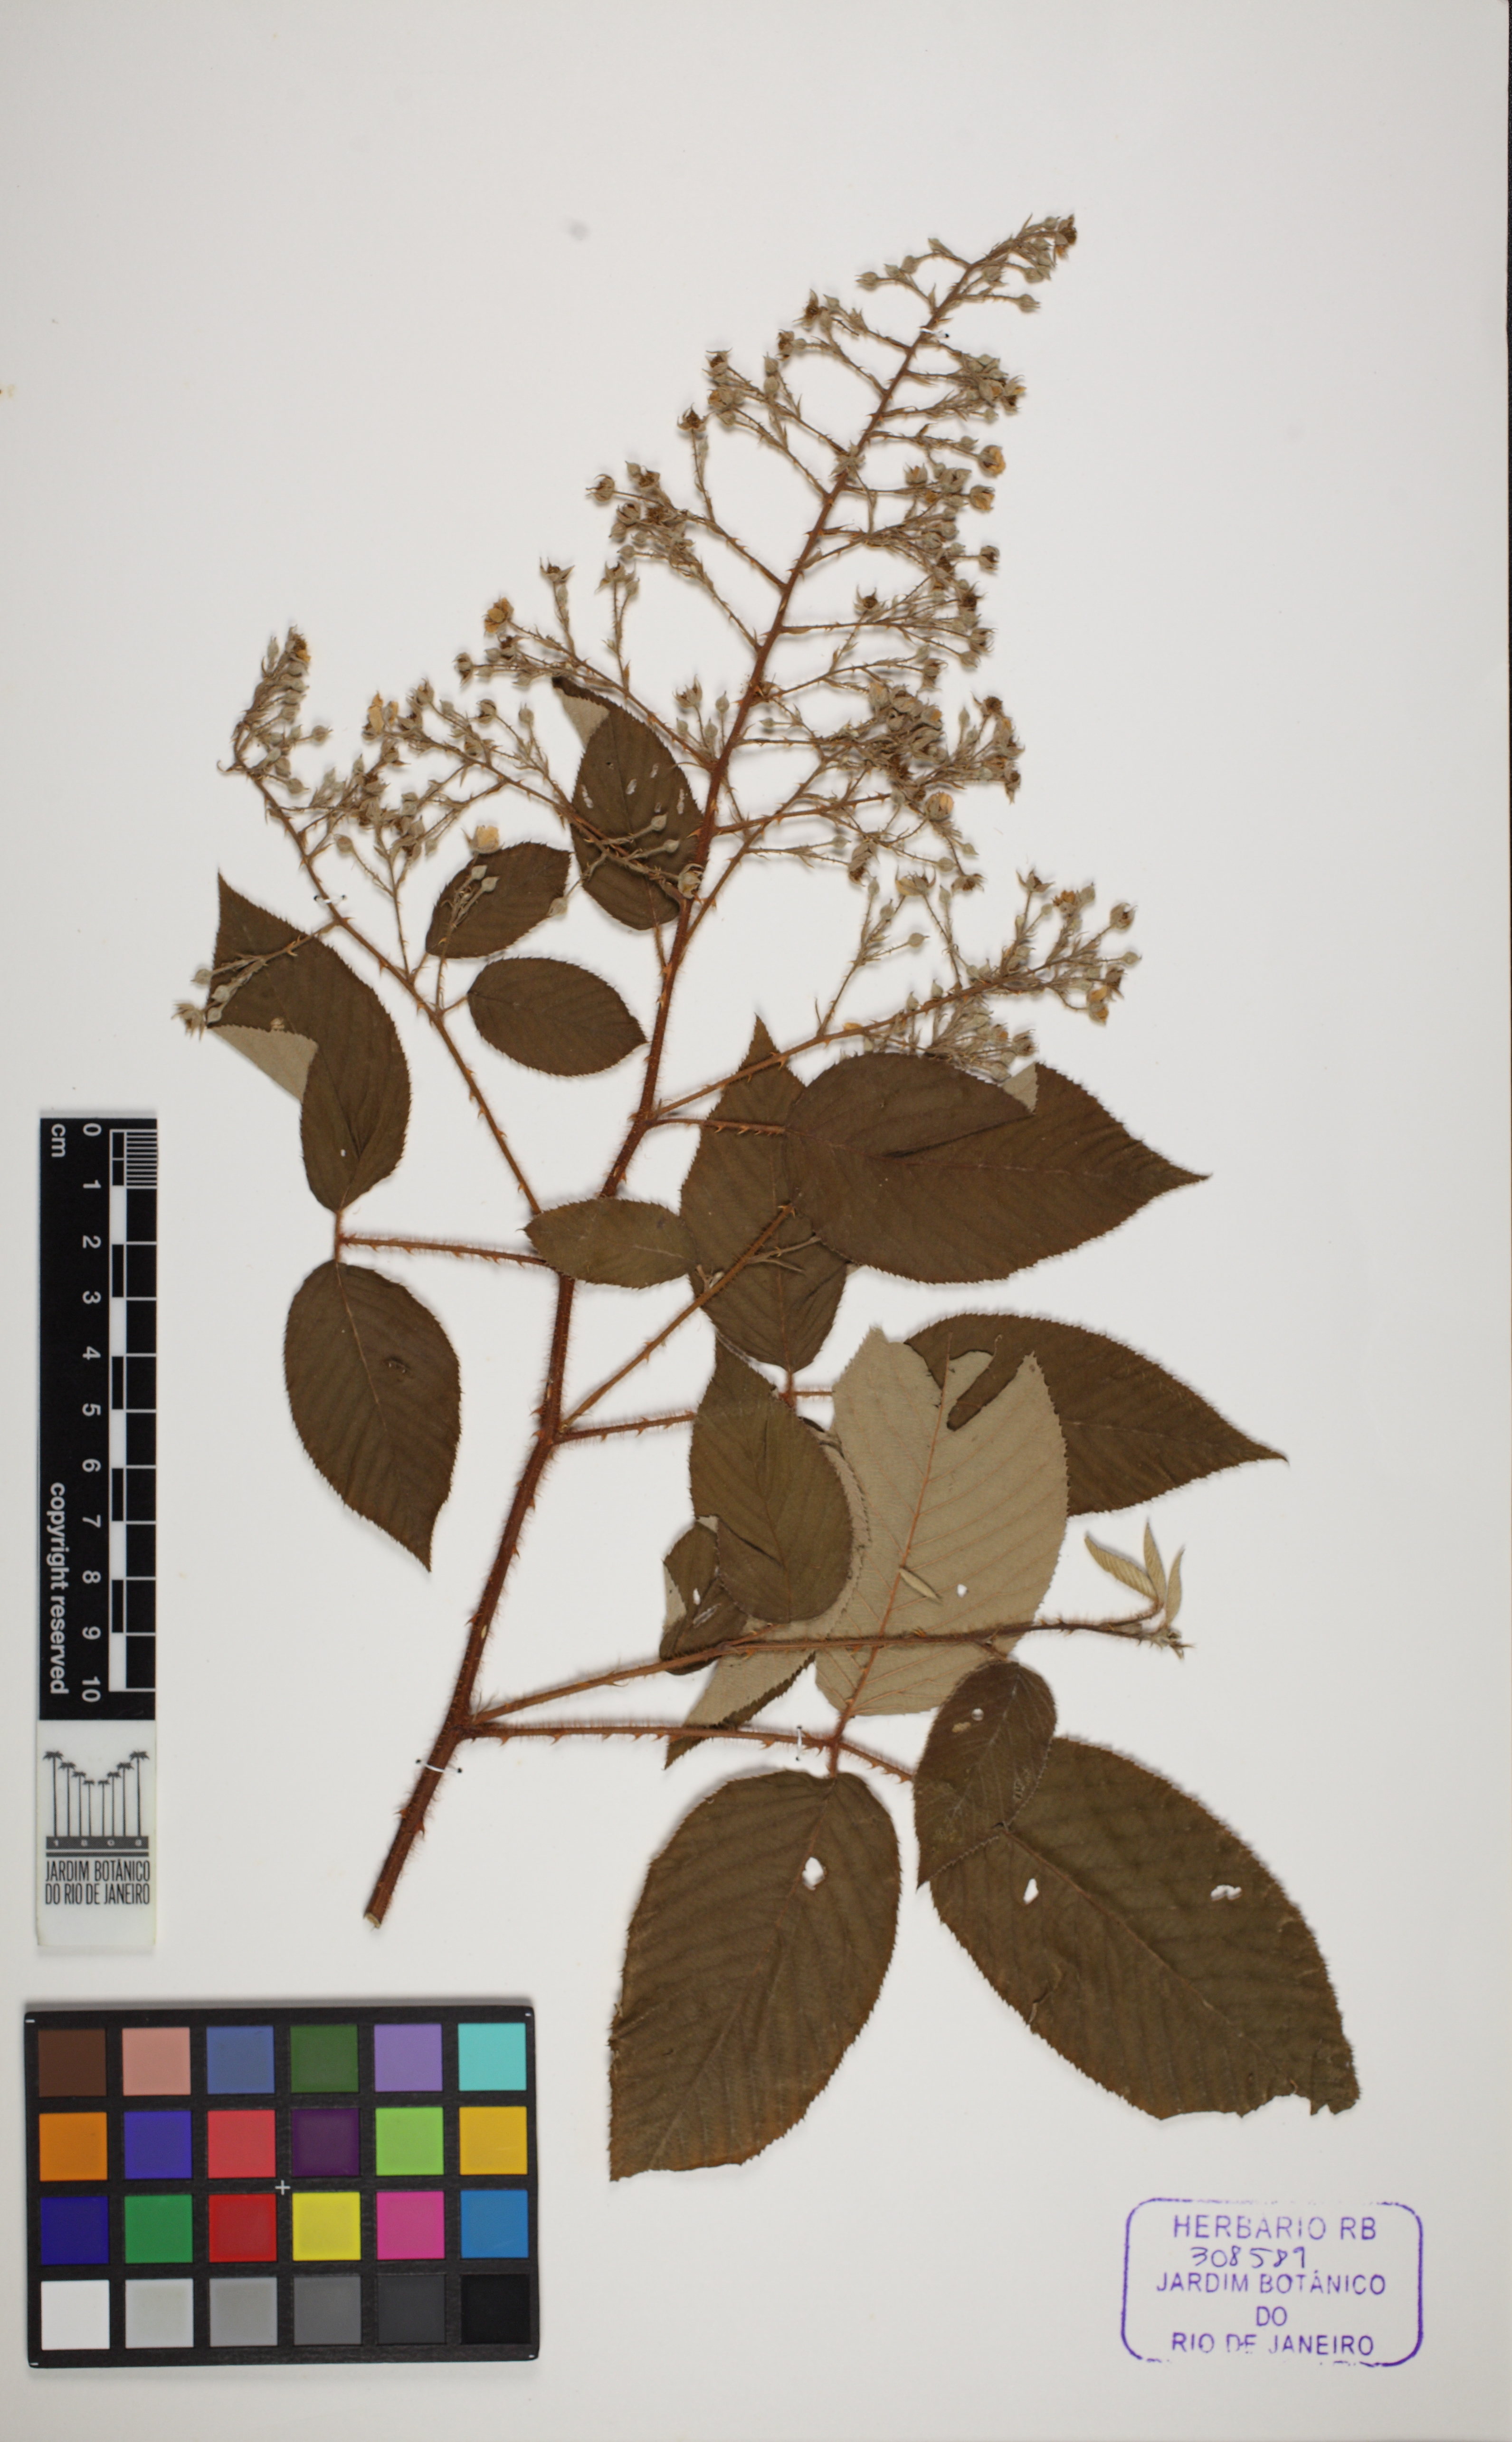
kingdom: Plantae
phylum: Tracheophyta
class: Magnoliopsida
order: Rosales
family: Rosaceae
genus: Rubus
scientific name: Rubus urticifolius
